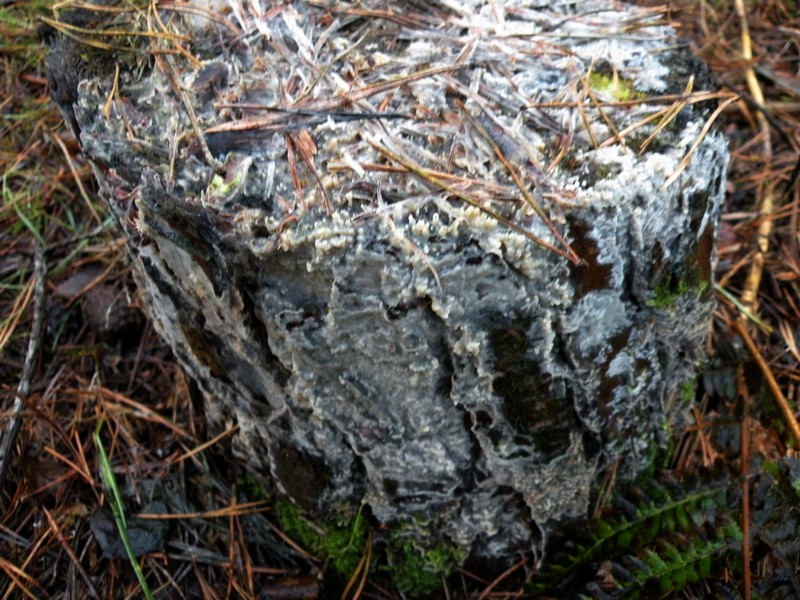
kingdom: Fungi
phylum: Basidiomycota
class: Agaricomycetes
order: Polyporales
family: Phanerochaetaceae
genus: Phlebiopsis
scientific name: Phlebiopsis gigantea
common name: kæmpebarksvamp
